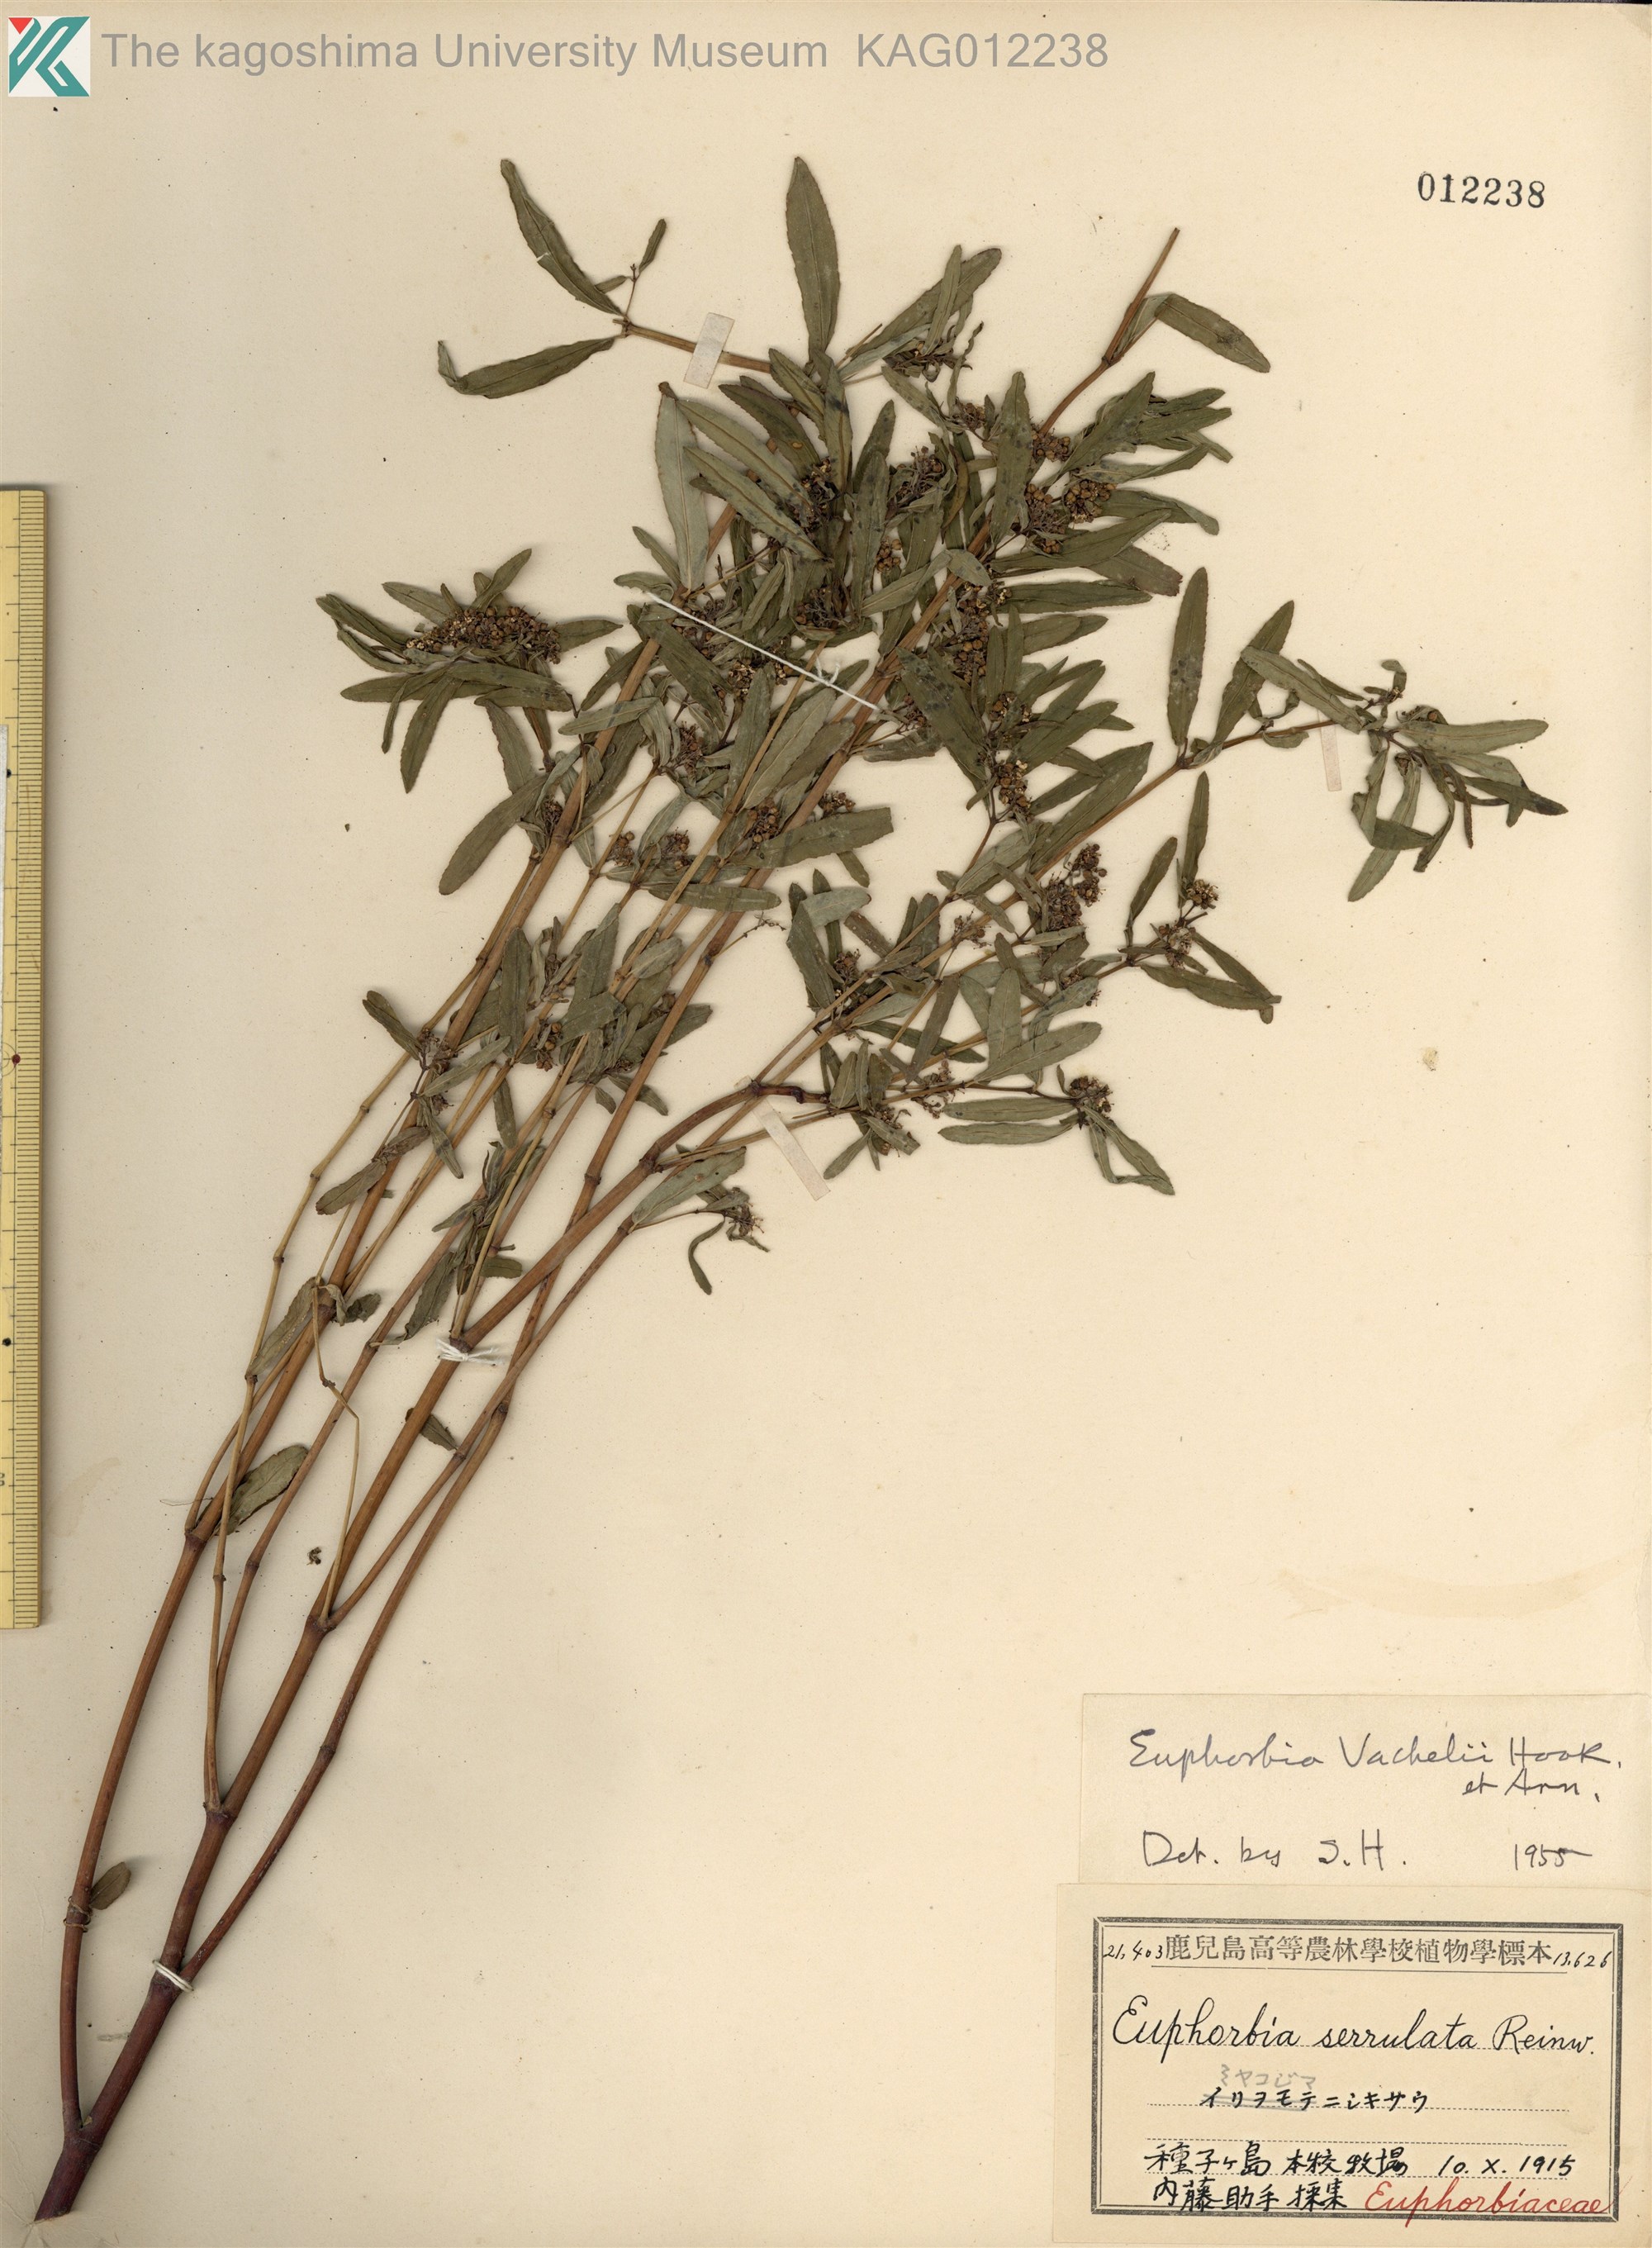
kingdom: Plantae
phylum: Tracheophyta
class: Magnoliopsida
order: Malpighiales
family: Euphorbiaceae
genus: Euphorbia
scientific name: Euphorbia bifida
